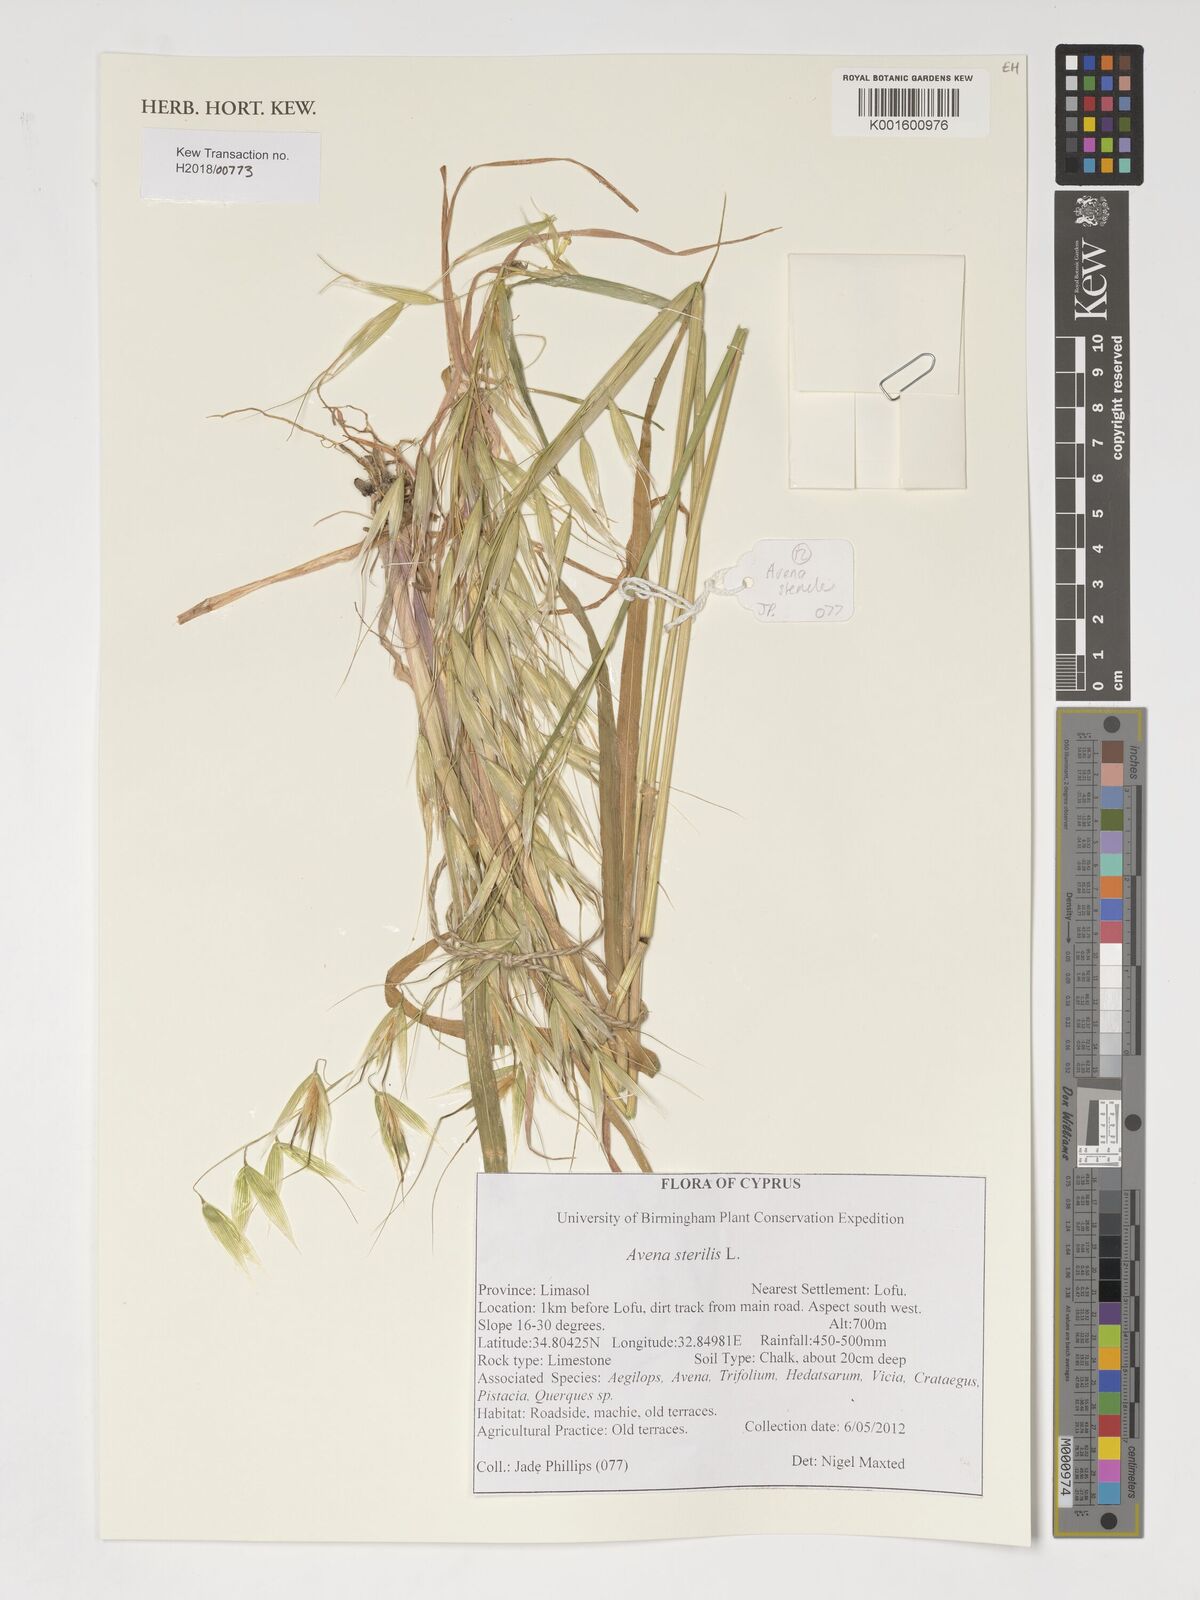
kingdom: Plantae
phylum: Tracheophyta
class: Liliopsida
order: Poales
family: Poaceae
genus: Avena
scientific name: Avena sterilis
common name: Animated oat
